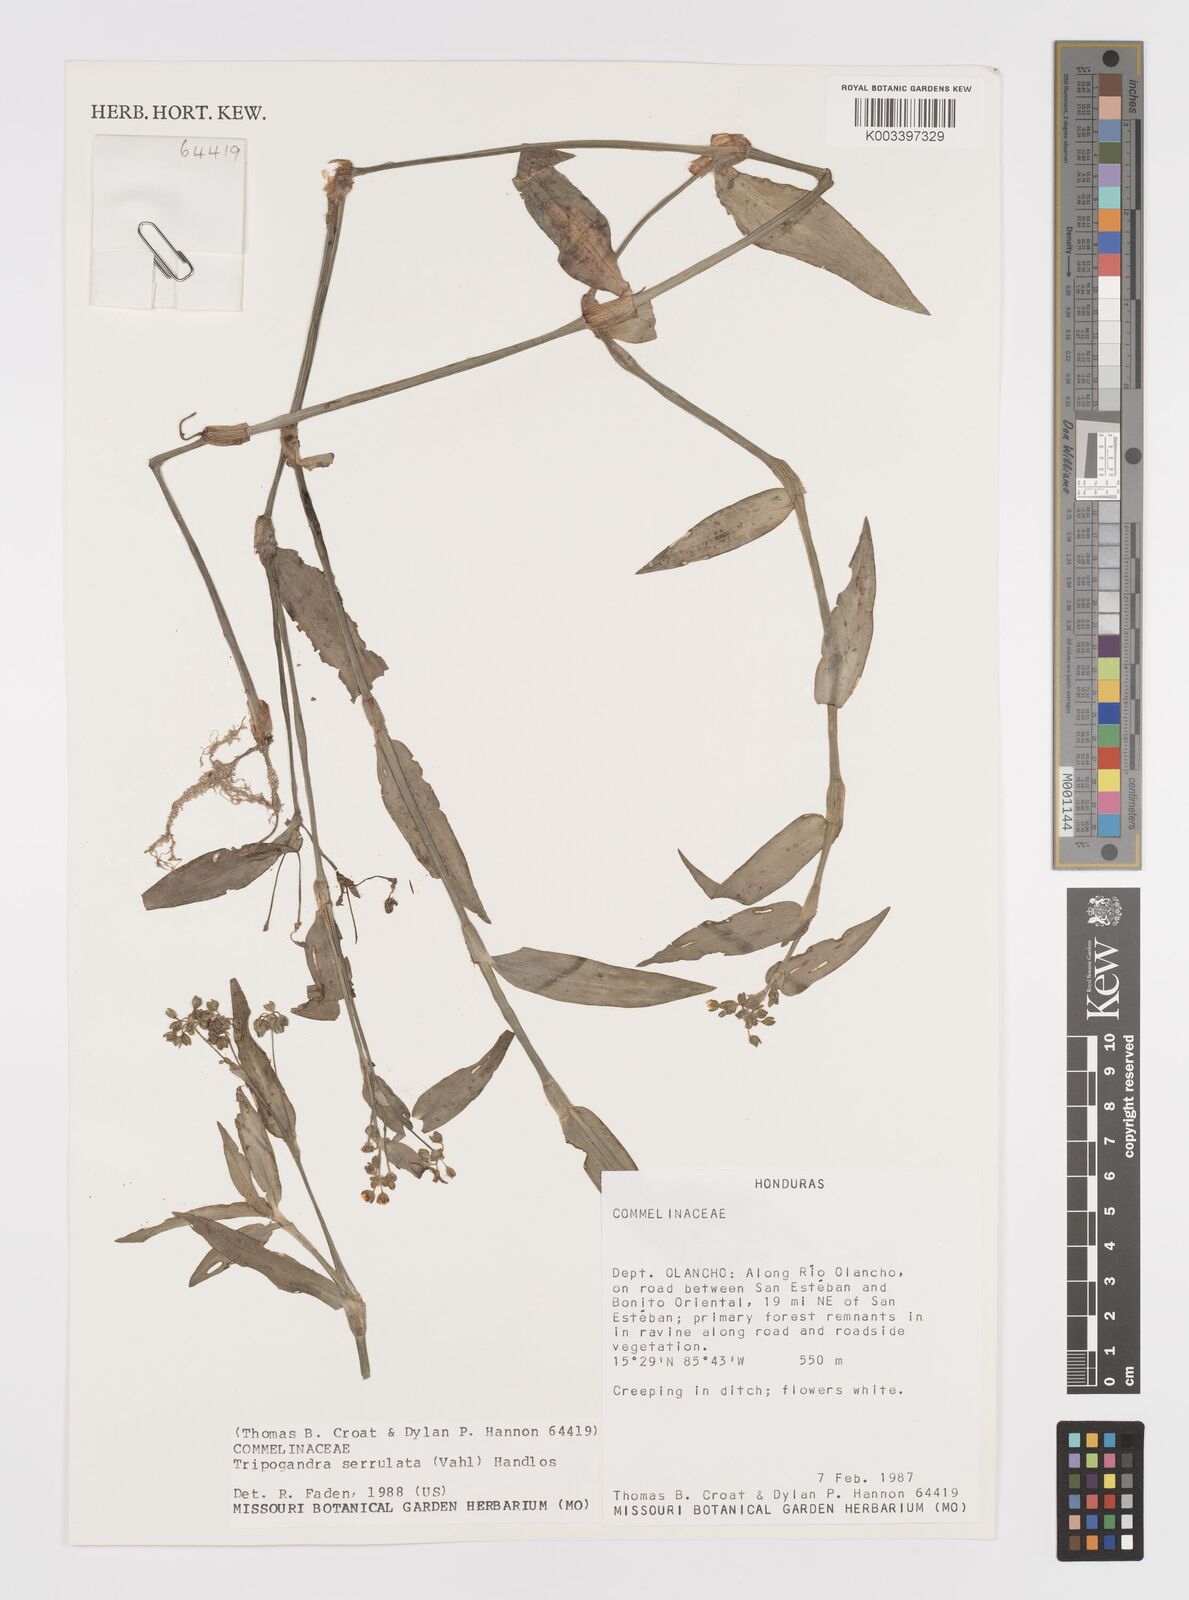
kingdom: Plantae
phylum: Tracheophyta
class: Liliopsida
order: Commelinales
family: Commelinaceae
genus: Callisia
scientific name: Callisia serrulata
